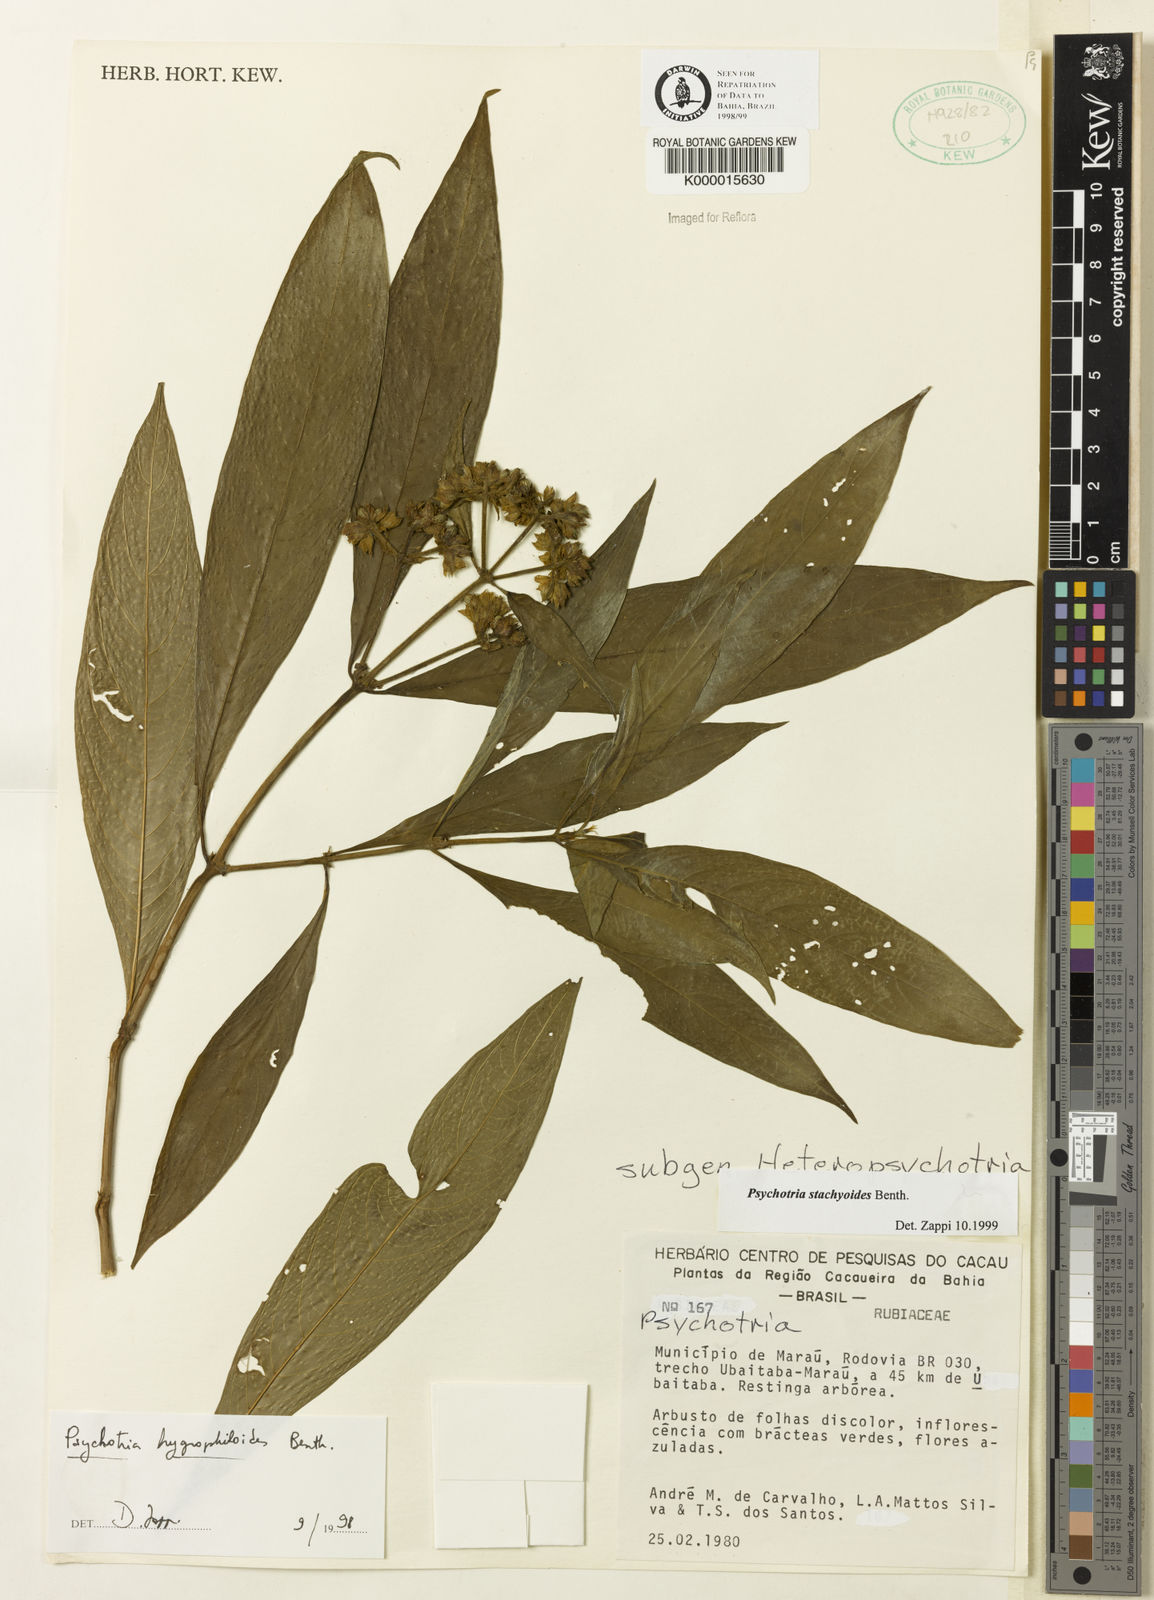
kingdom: Plantae
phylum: Tracheophyta
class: Magnoliopsida
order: Gentianales
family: Rubiaceae
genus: Psychotria
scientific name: Psychotria stachyoides
